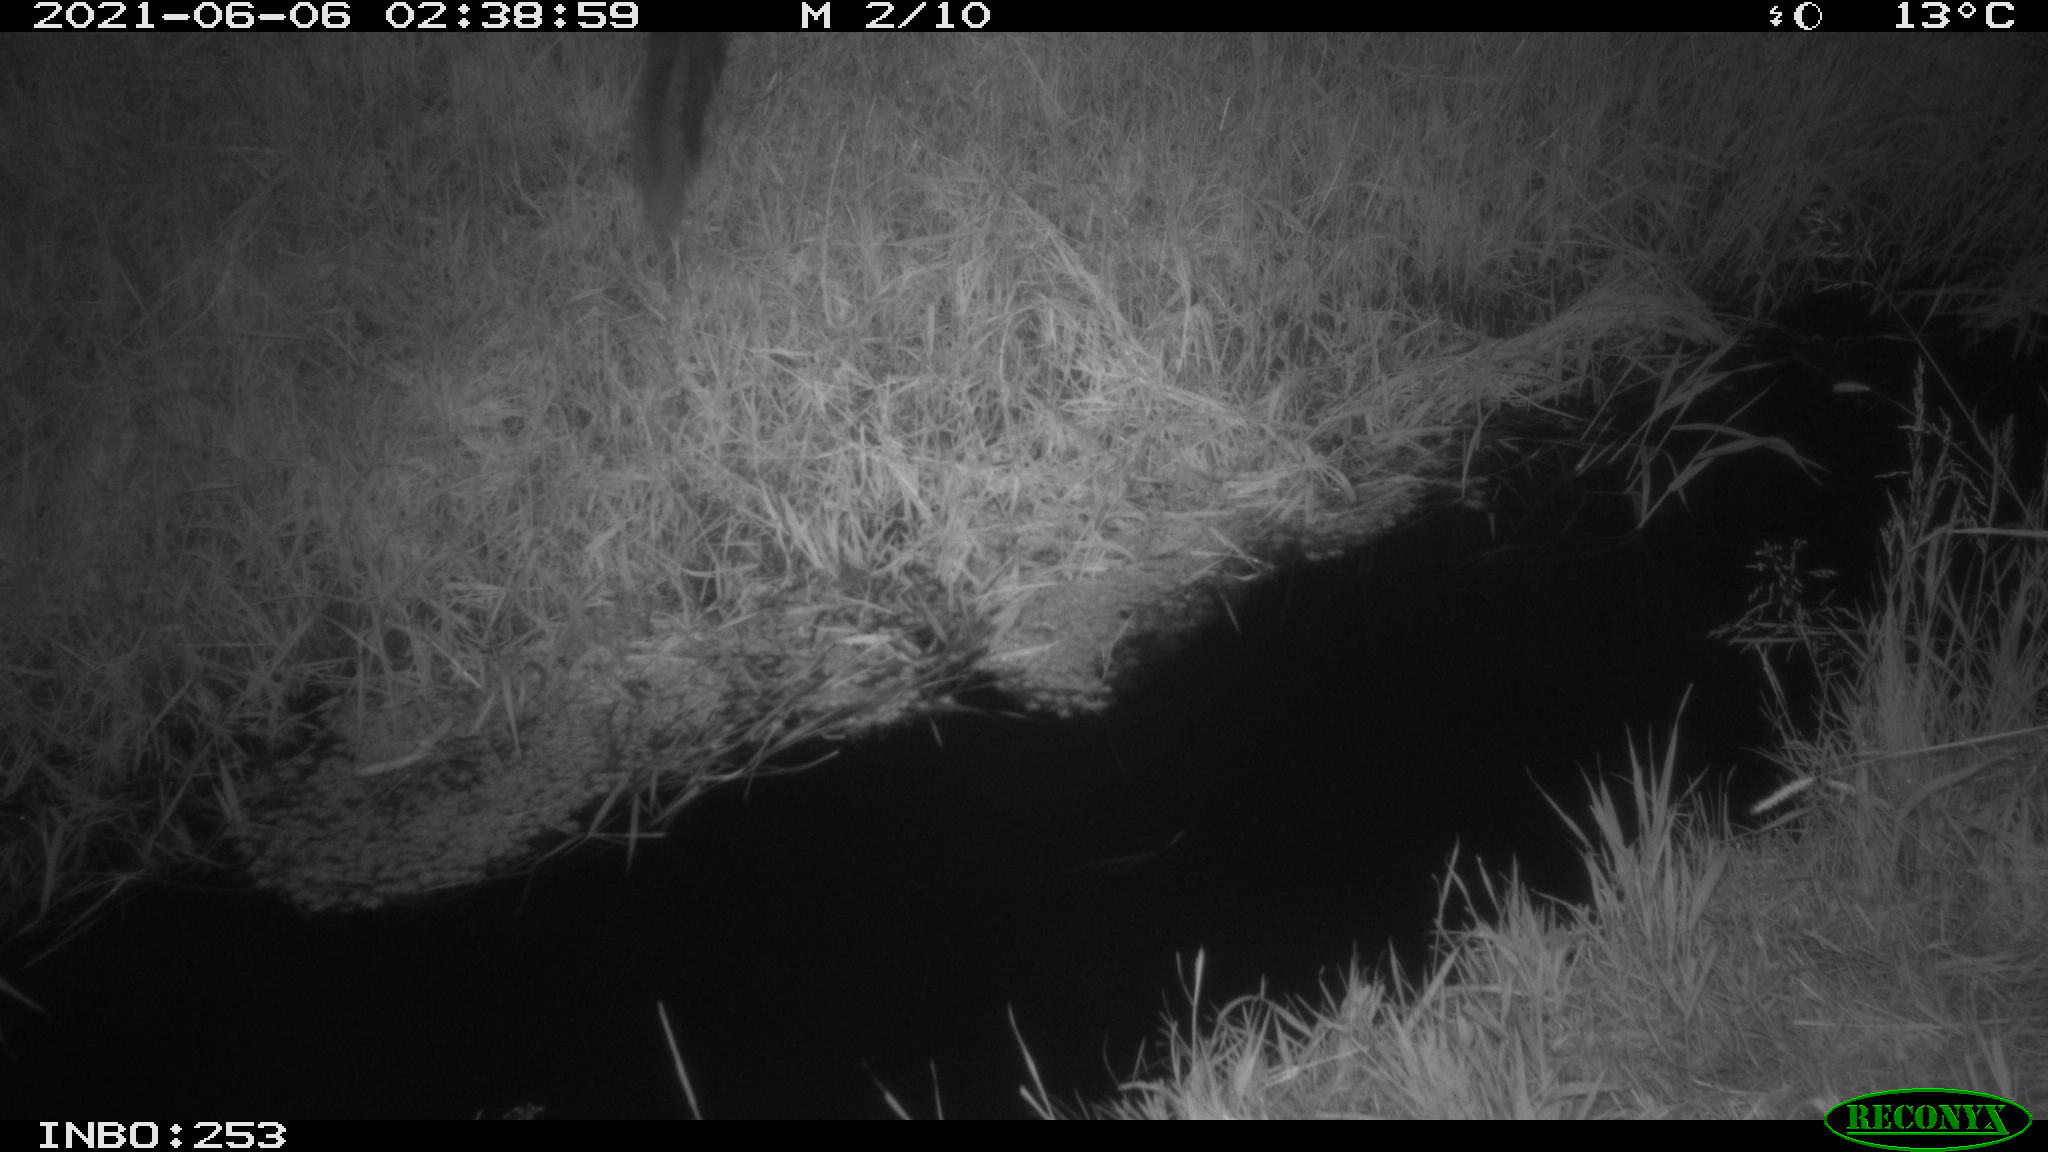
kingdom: Animalia
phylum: Chordata
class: Mammalia
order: Carnivora
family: Mustelidae
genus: Martes
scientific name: Martes
